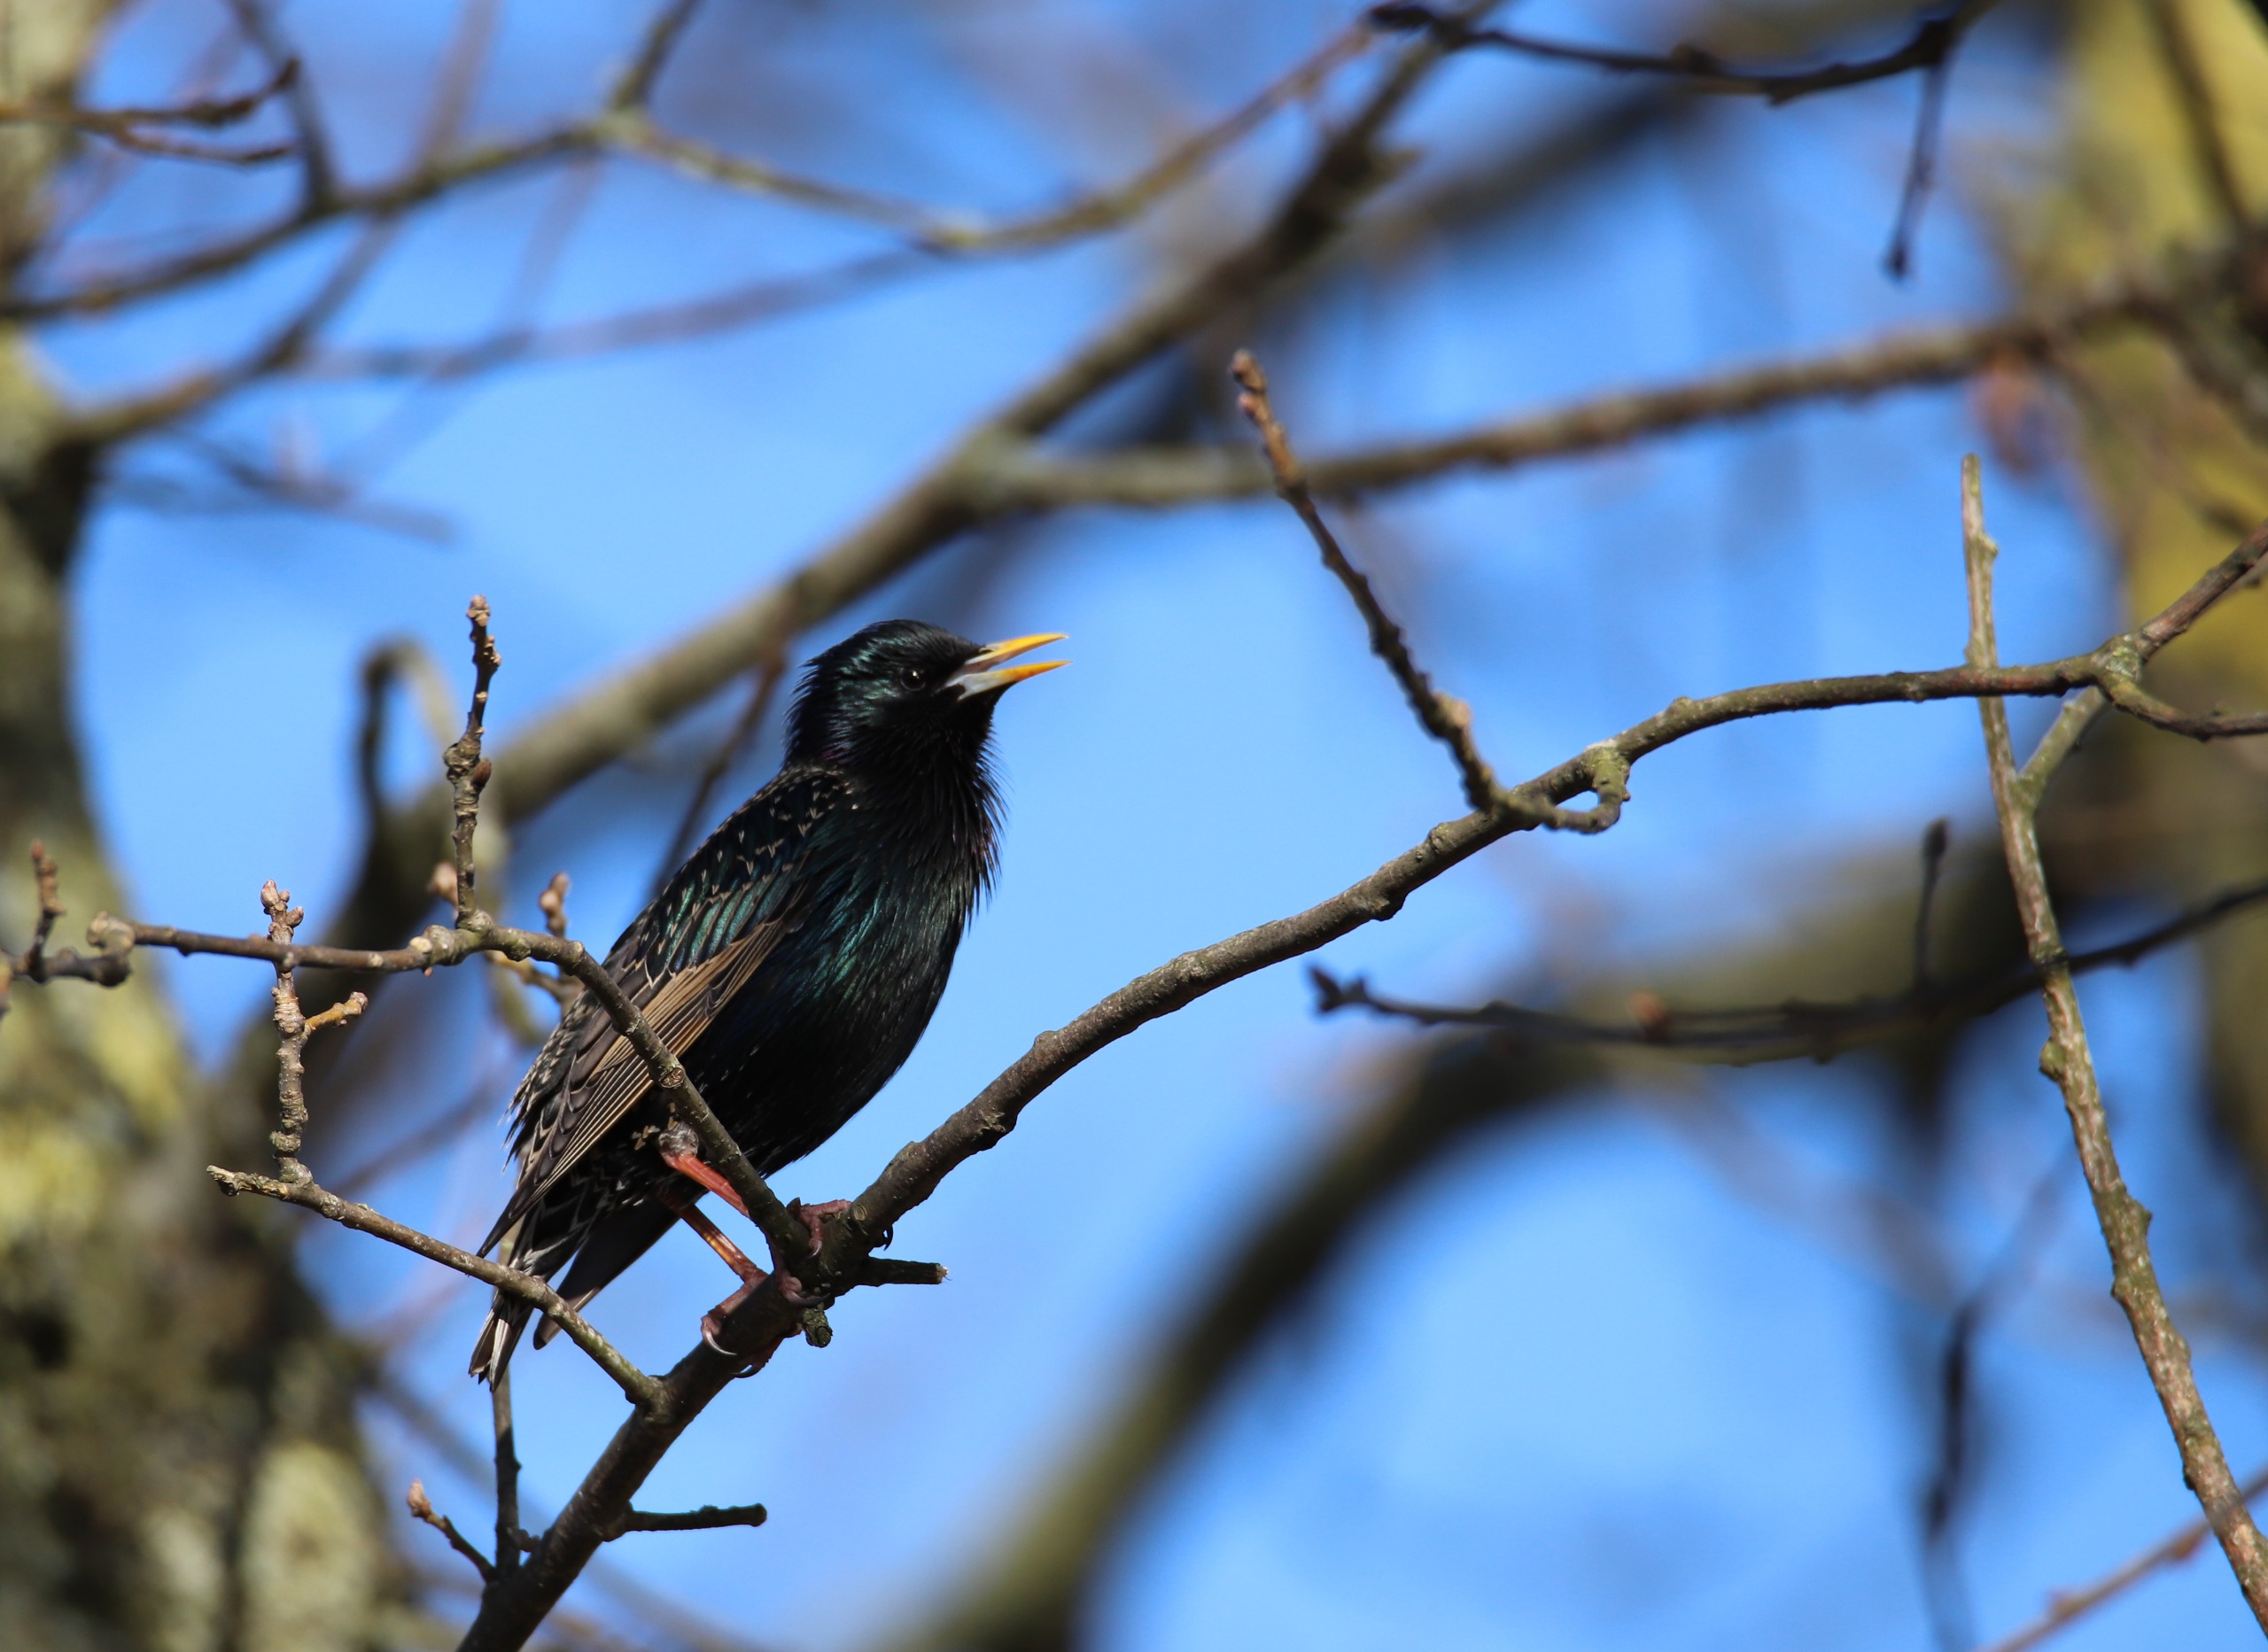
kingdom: Animalia
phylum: Chordata
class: Aves
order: Passeriformes
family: Sturnidae
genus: Sturnus
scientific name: Sturnus vulgaris
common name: Stær
